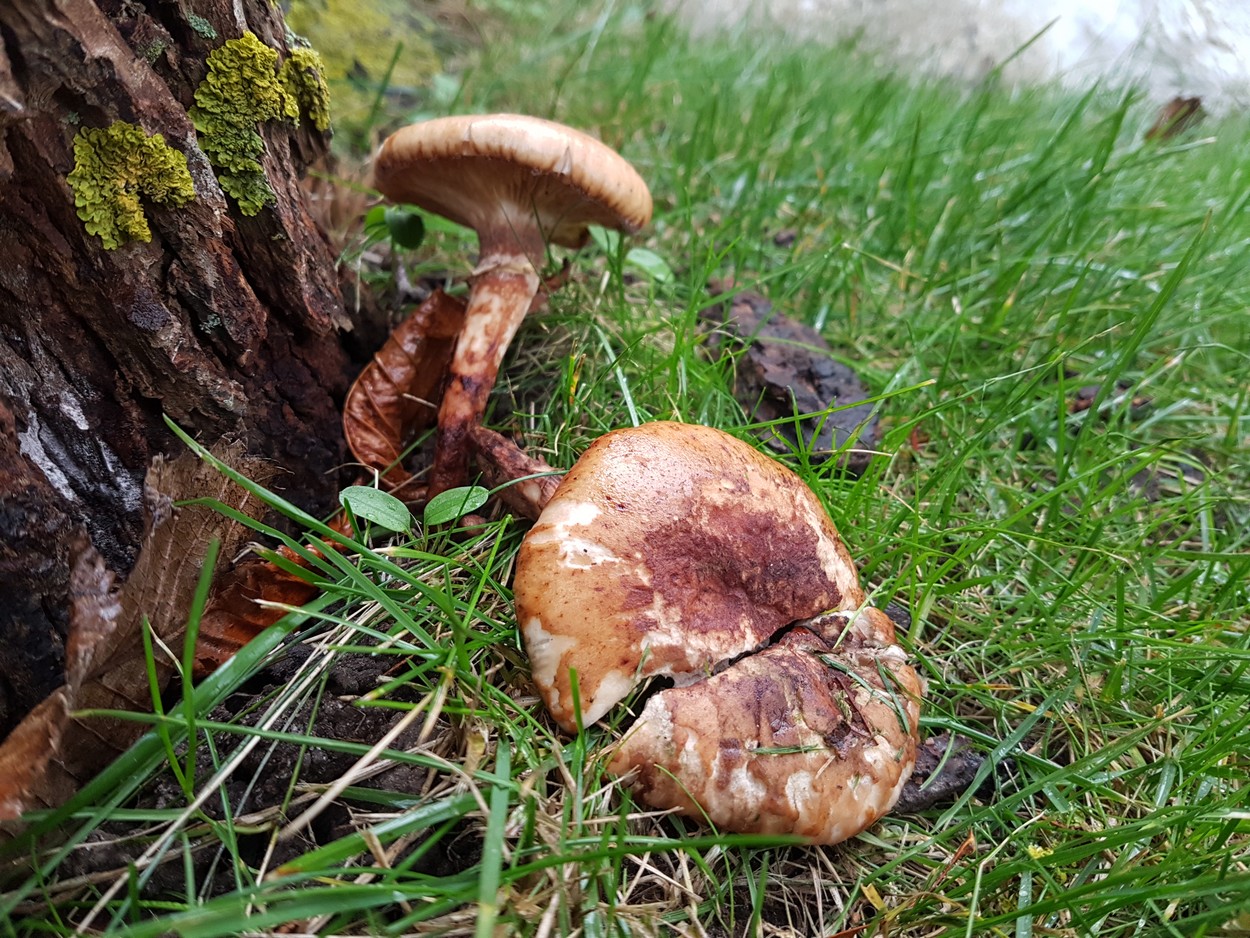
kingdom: Fungi
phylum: Basidiomycota
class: Agaricomycetes
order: Agaricales
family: Physalacriaceae
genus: Armillaria
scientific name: Armillaria
